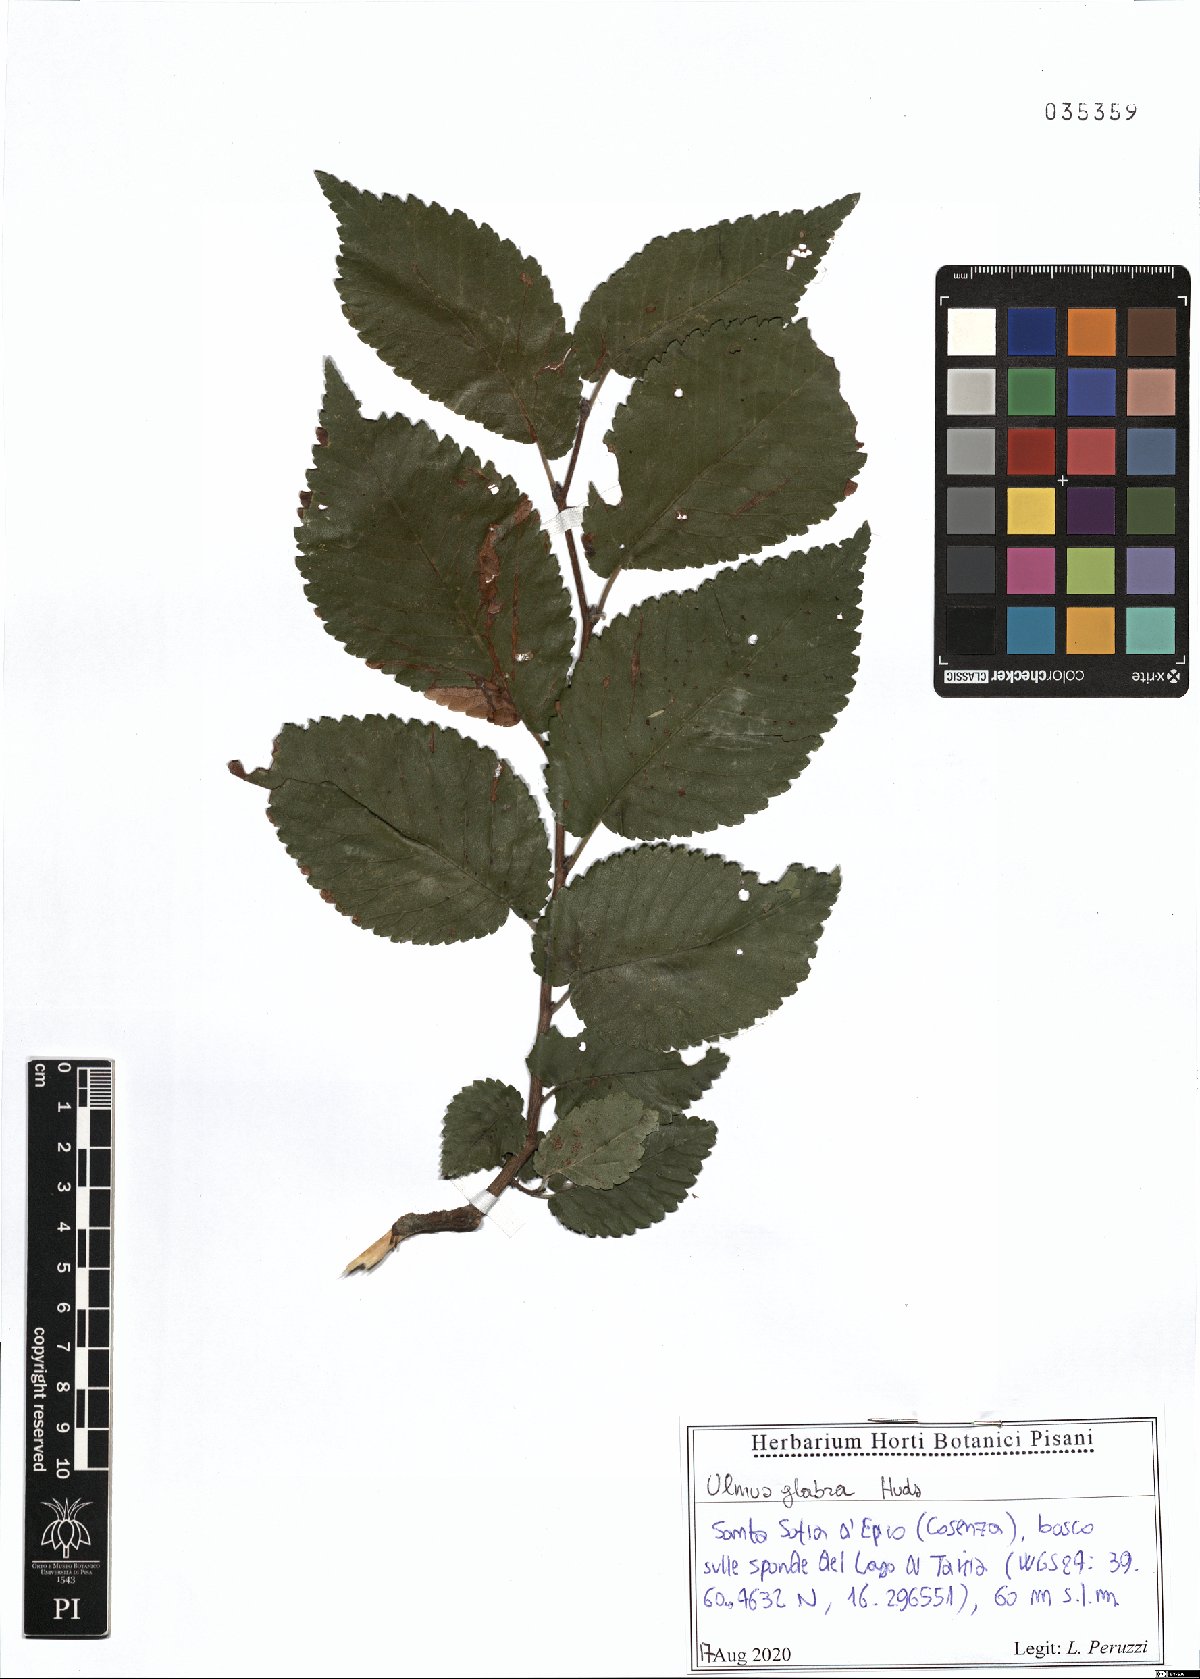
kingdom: Plantae
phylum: Tracheophyta
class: Magnoliopsida
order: Rosales
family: Ulmaceae
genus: Ulmus
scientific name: Ulmus glabra
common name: Wych elm
